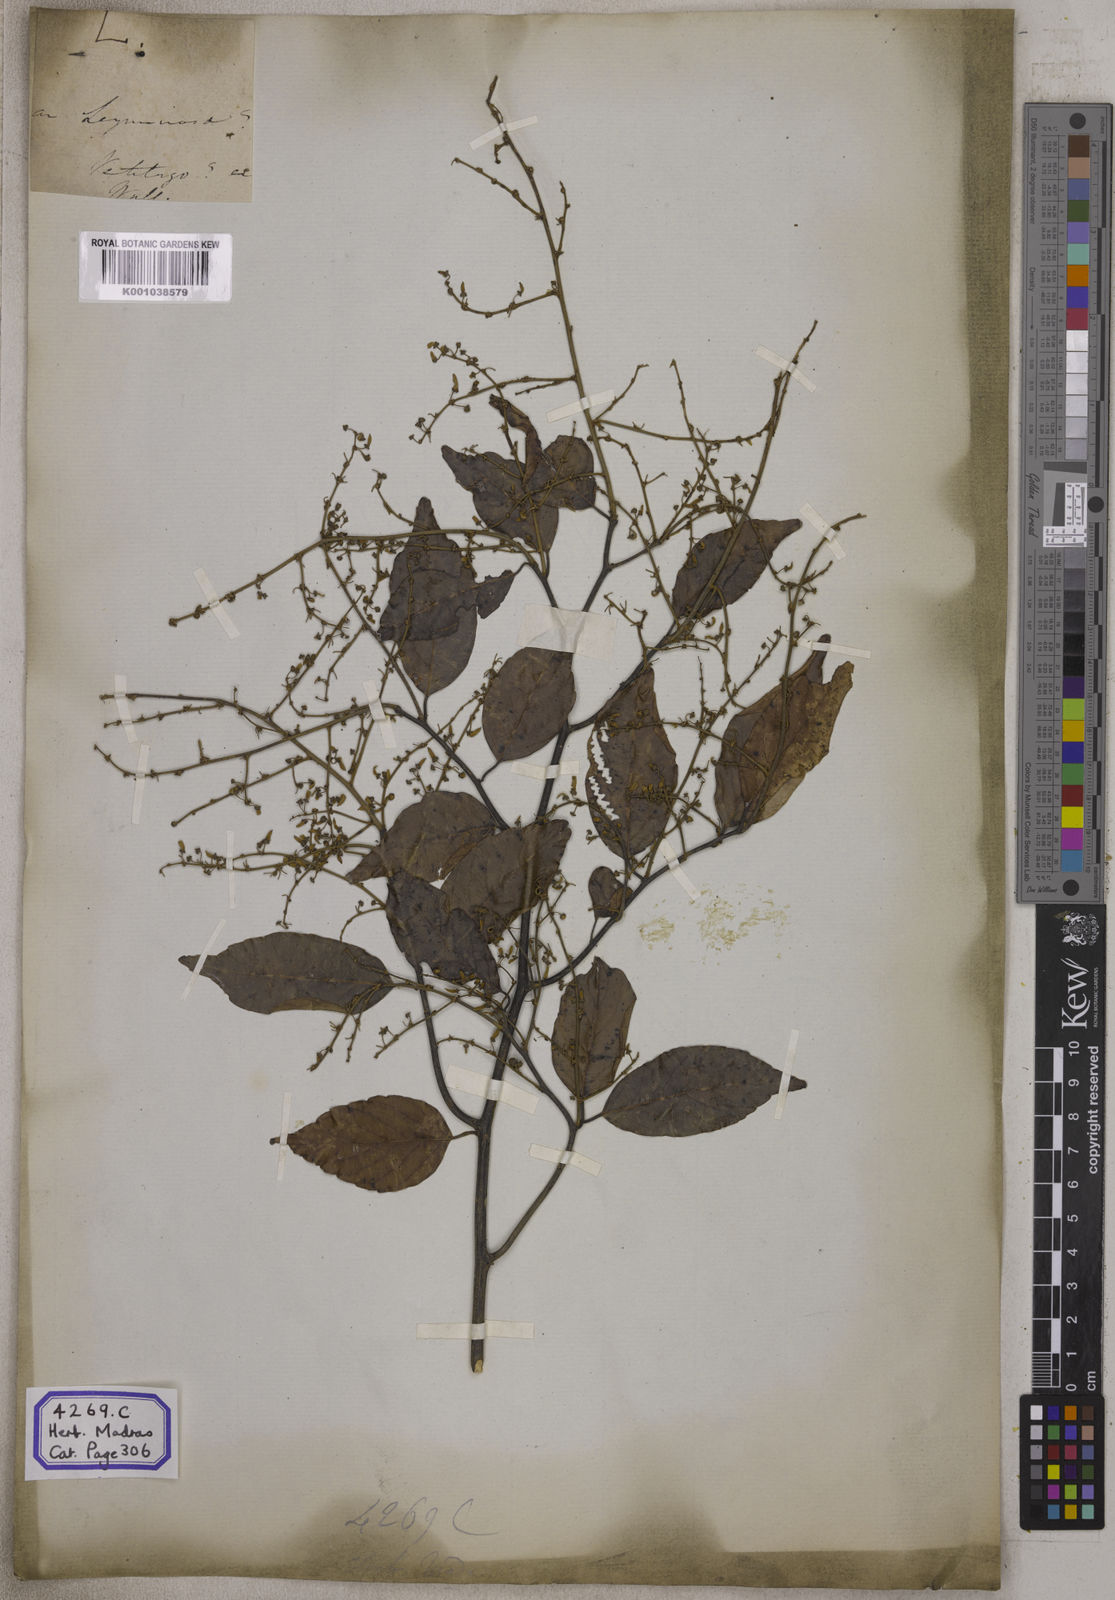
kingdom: Plantae
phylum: Tracheophyta
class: Magnoliopsida
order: Rosales
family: Rhamnaceae
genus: Ventilago
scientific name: Ventilago madraspatana
